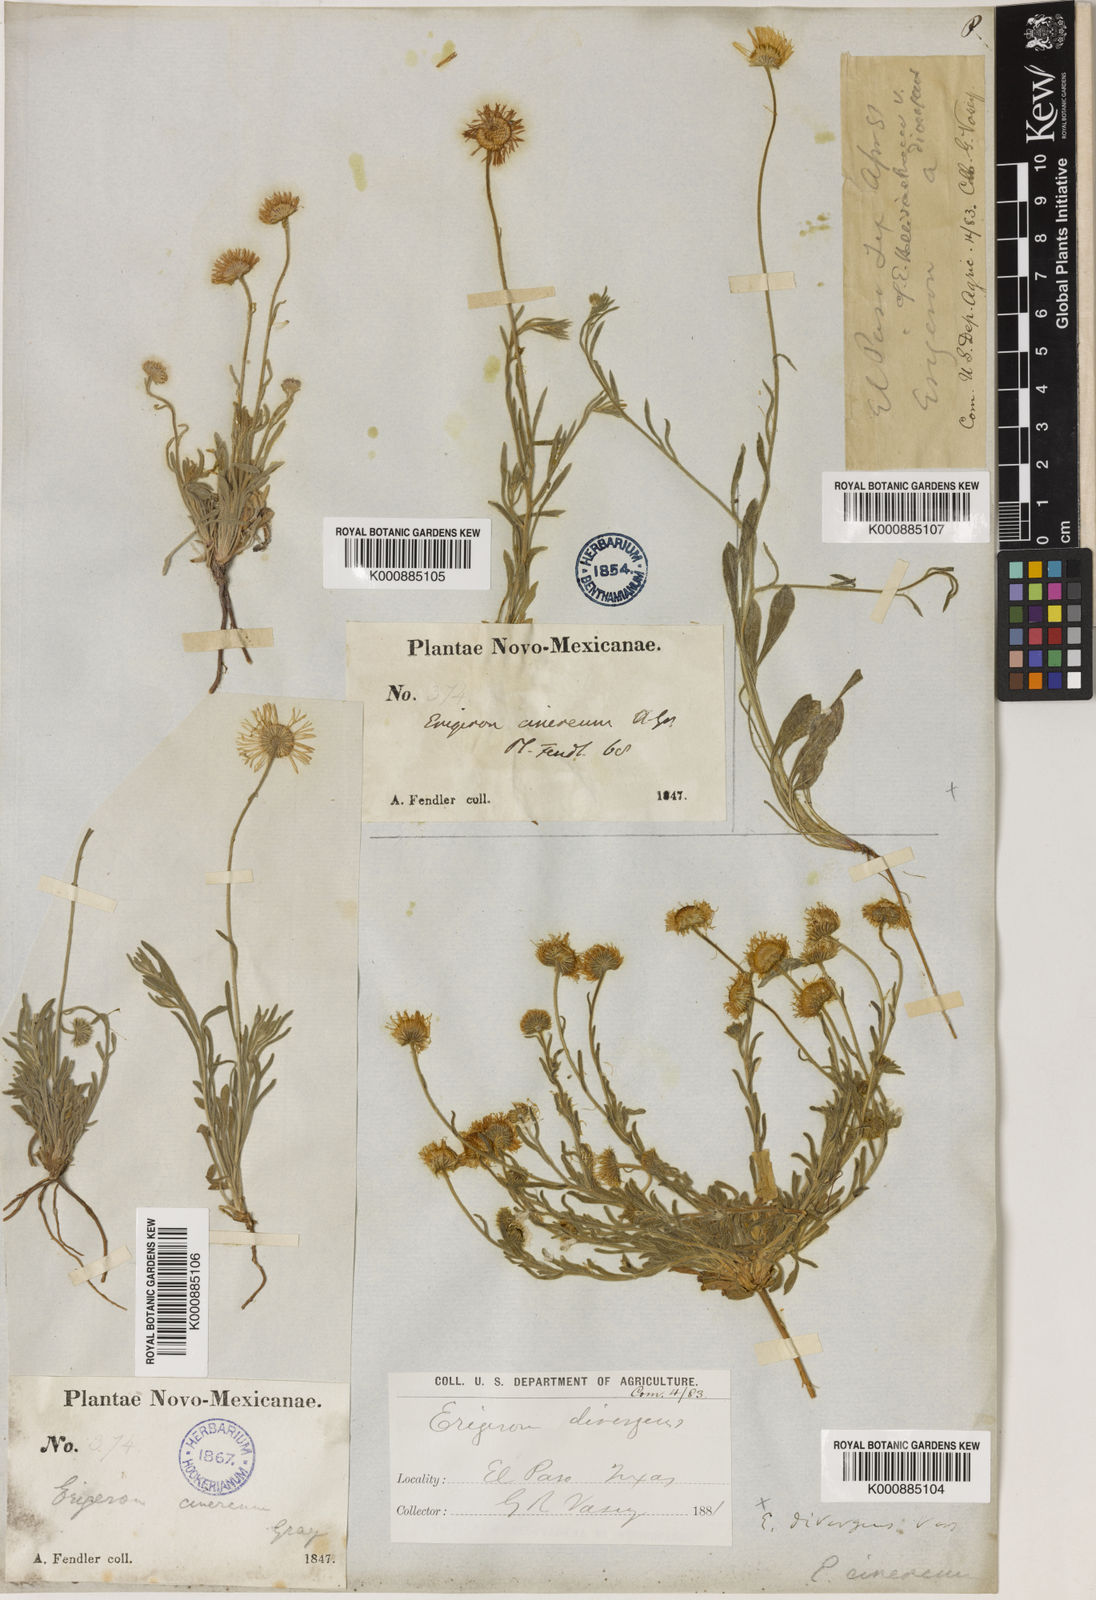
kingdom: Plantae
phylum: Tracheophyta
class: Magnoliopsida
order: Asterales
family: Asteraceae
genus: Erigeron
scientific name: Erigeron tracyi
